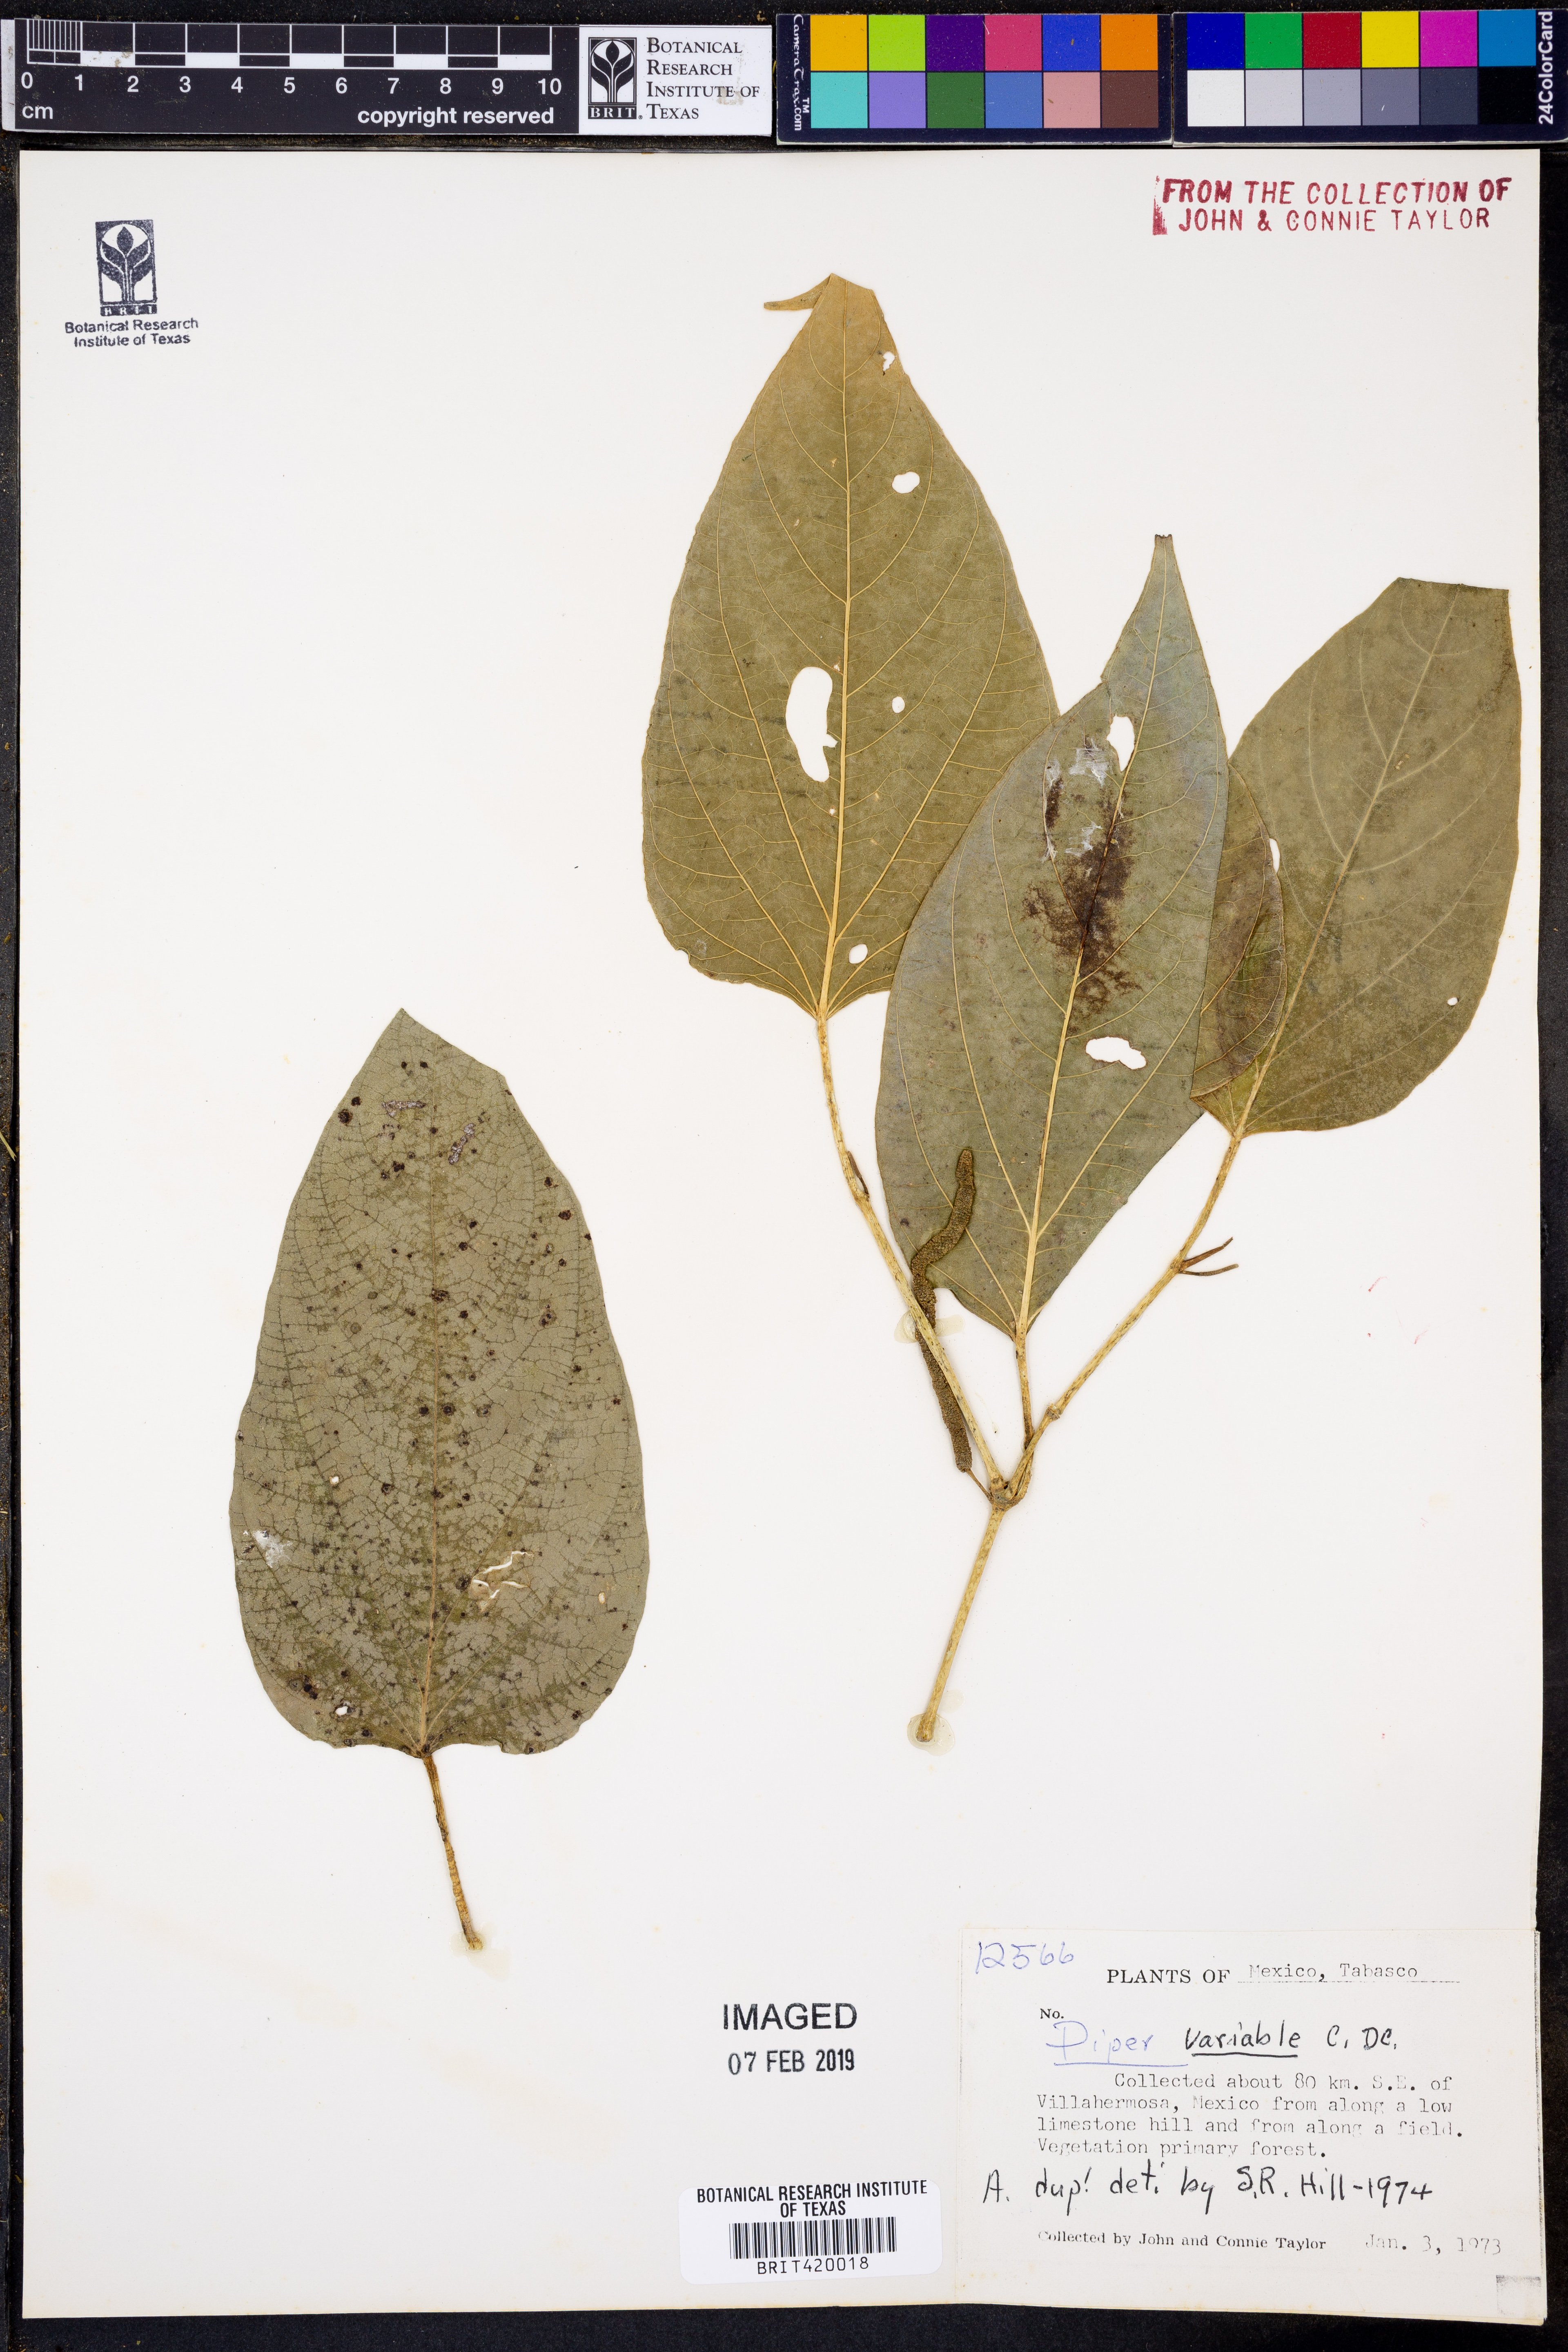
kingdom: Plantae
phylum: Tracheophyta
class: Magnoliopsida
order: Piperales
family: Piperaceae
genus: Piper
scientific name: Piper variabile
